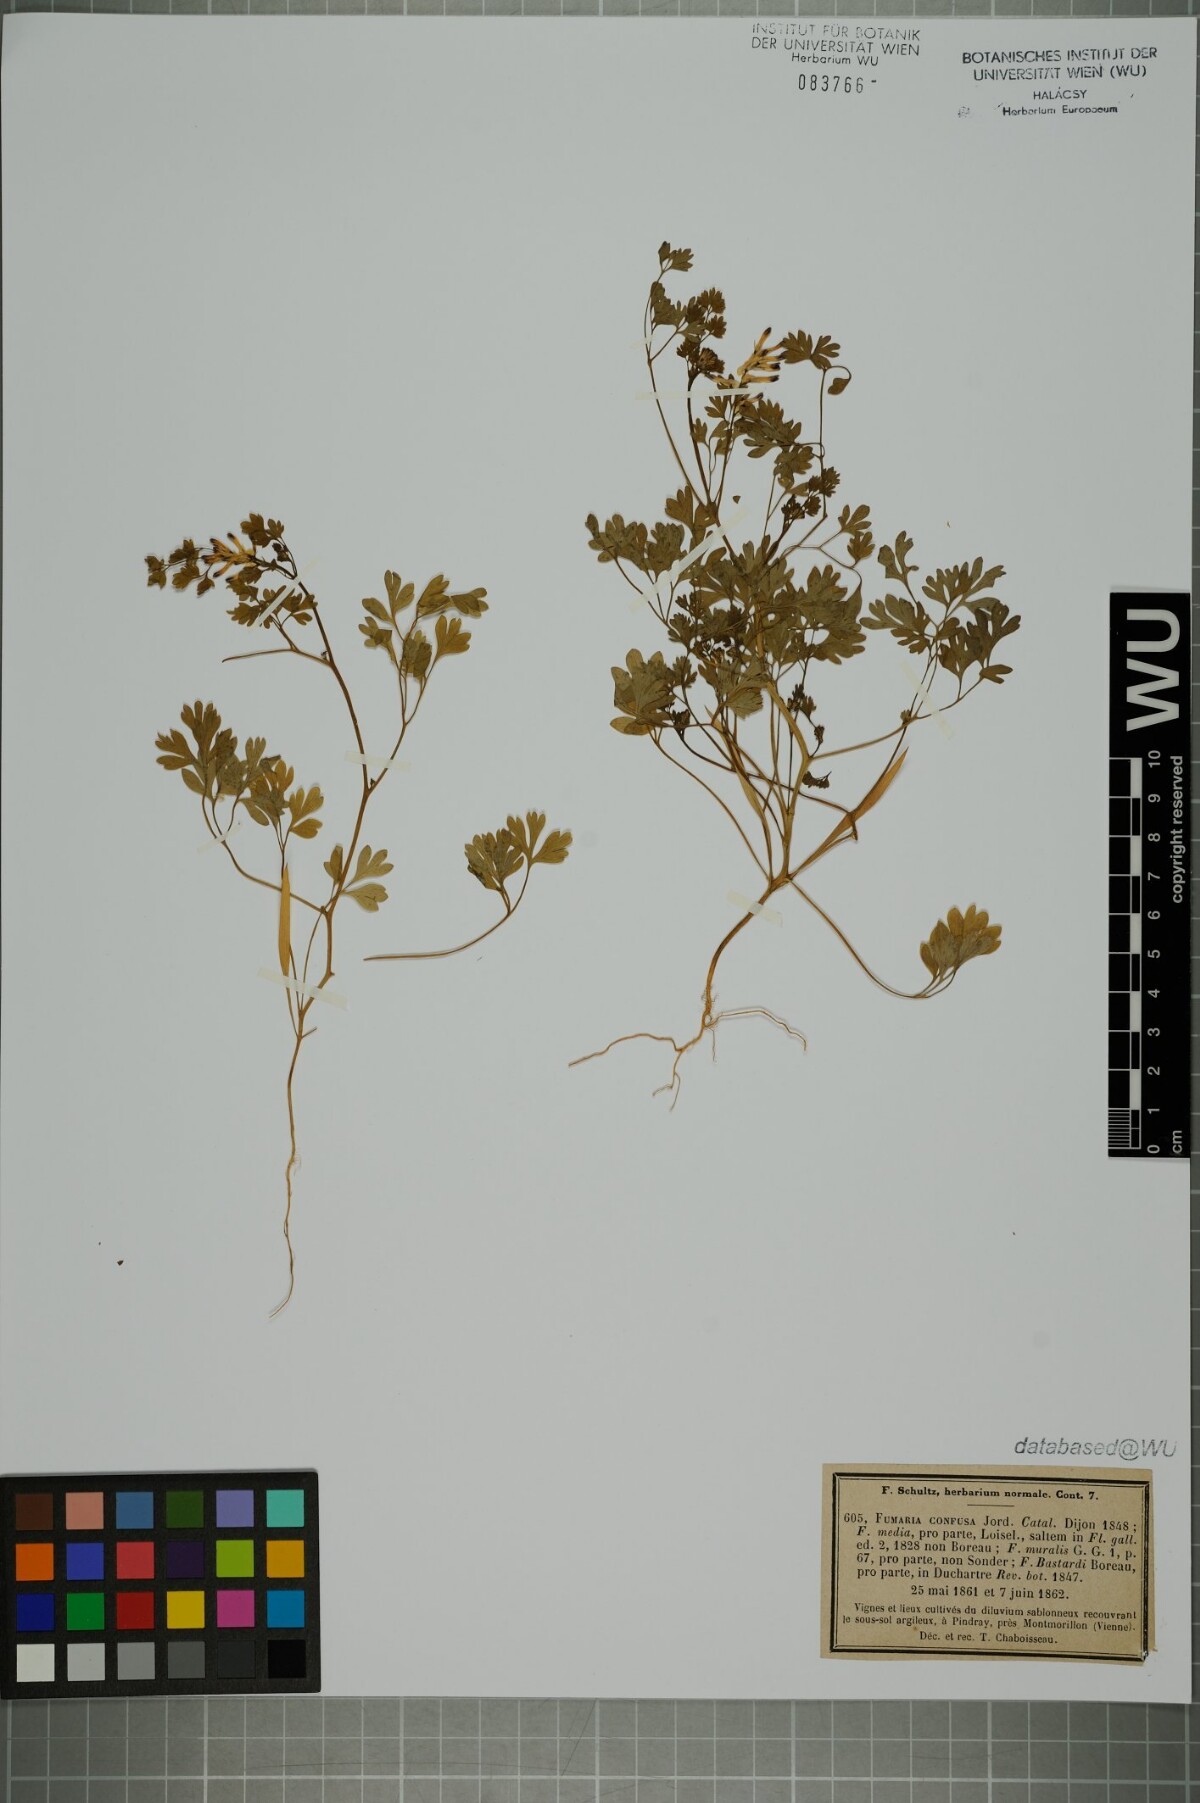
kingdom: Plantae
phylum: Tracheophyta
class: Magnoliopsida
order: Ranunculales
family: Papaveraceae
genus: Fumaria
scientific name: Fumaria bastardii
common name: Tall ramping-fumitory
